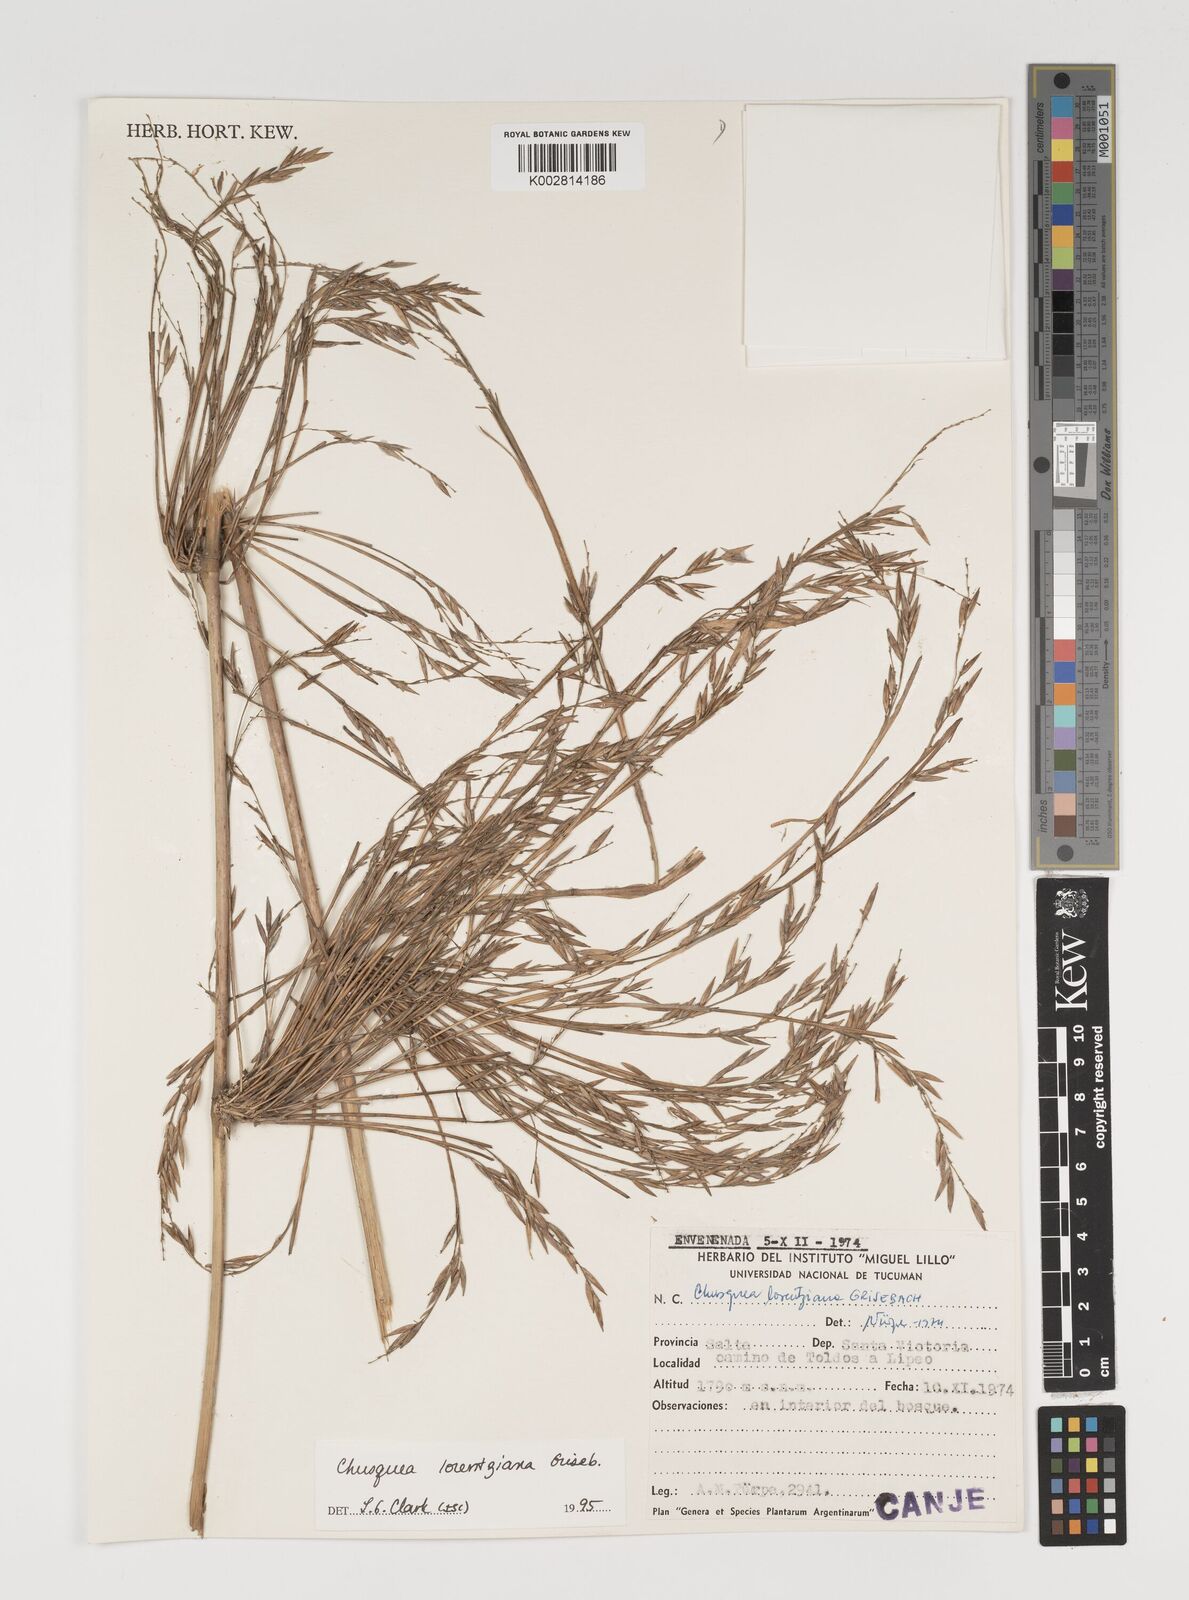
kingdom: Plantae
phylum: Tracheophyta
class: Liliopsida
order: Poales
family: Poaceae
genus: Chusquea
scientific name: Chusquea lorentziana
